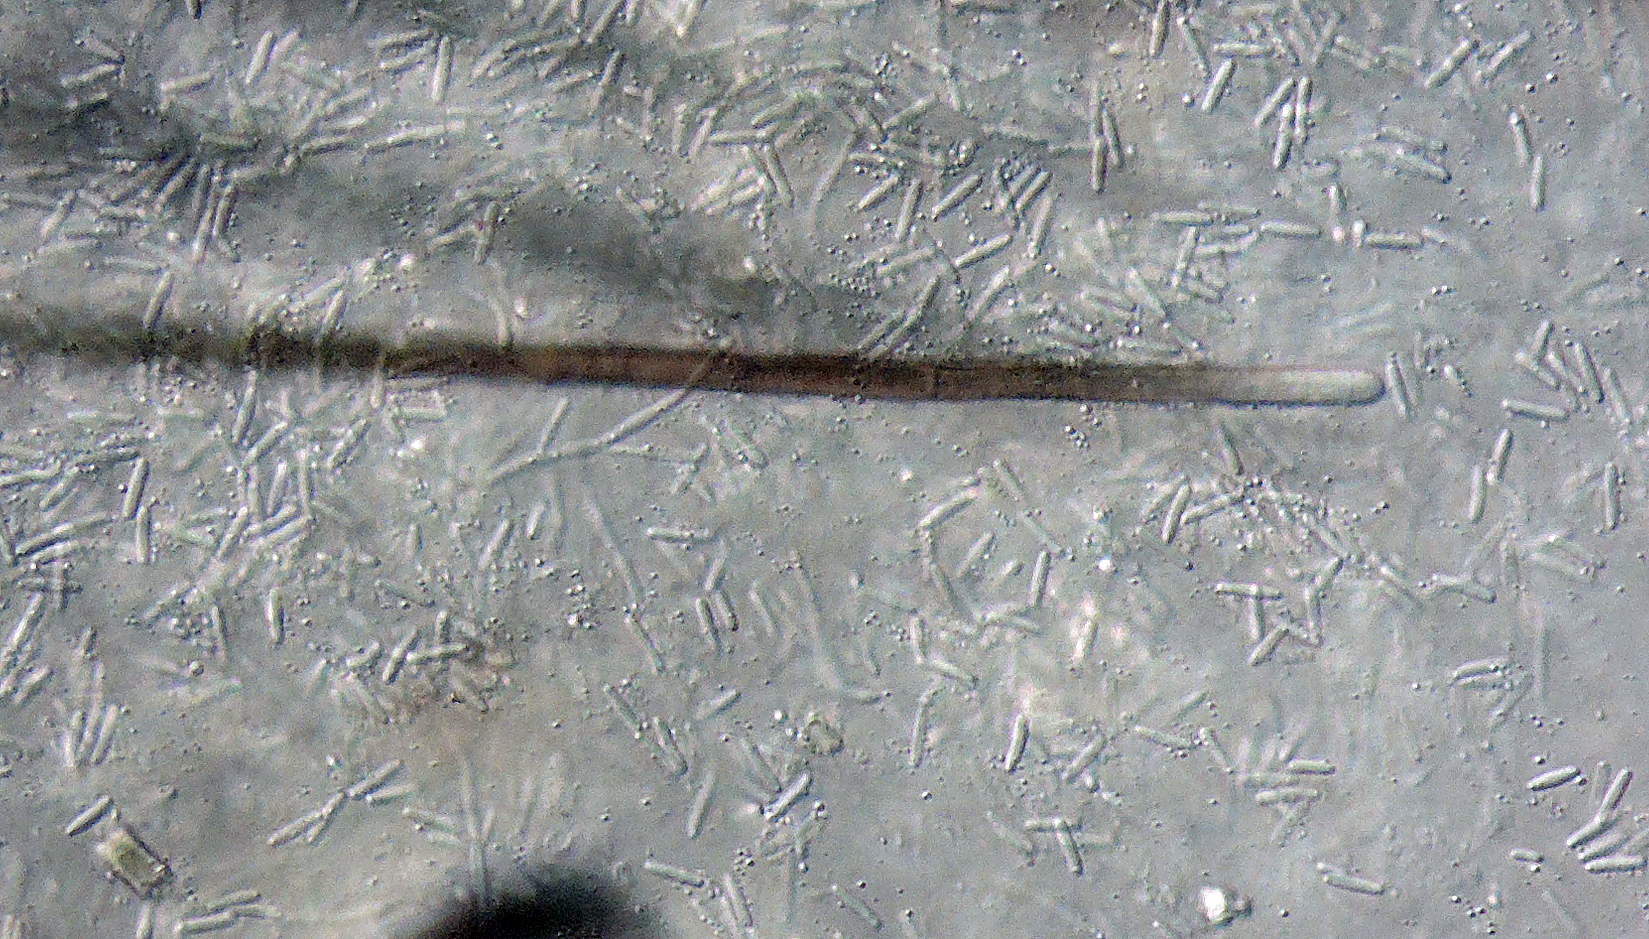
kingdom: Fungi
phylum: Ascomycota
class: Dothideomycetes
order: Pleosporales
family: Cucurbitariaceae
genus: Pyrenochaeta
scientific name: Pyrenochaeta nobilis
